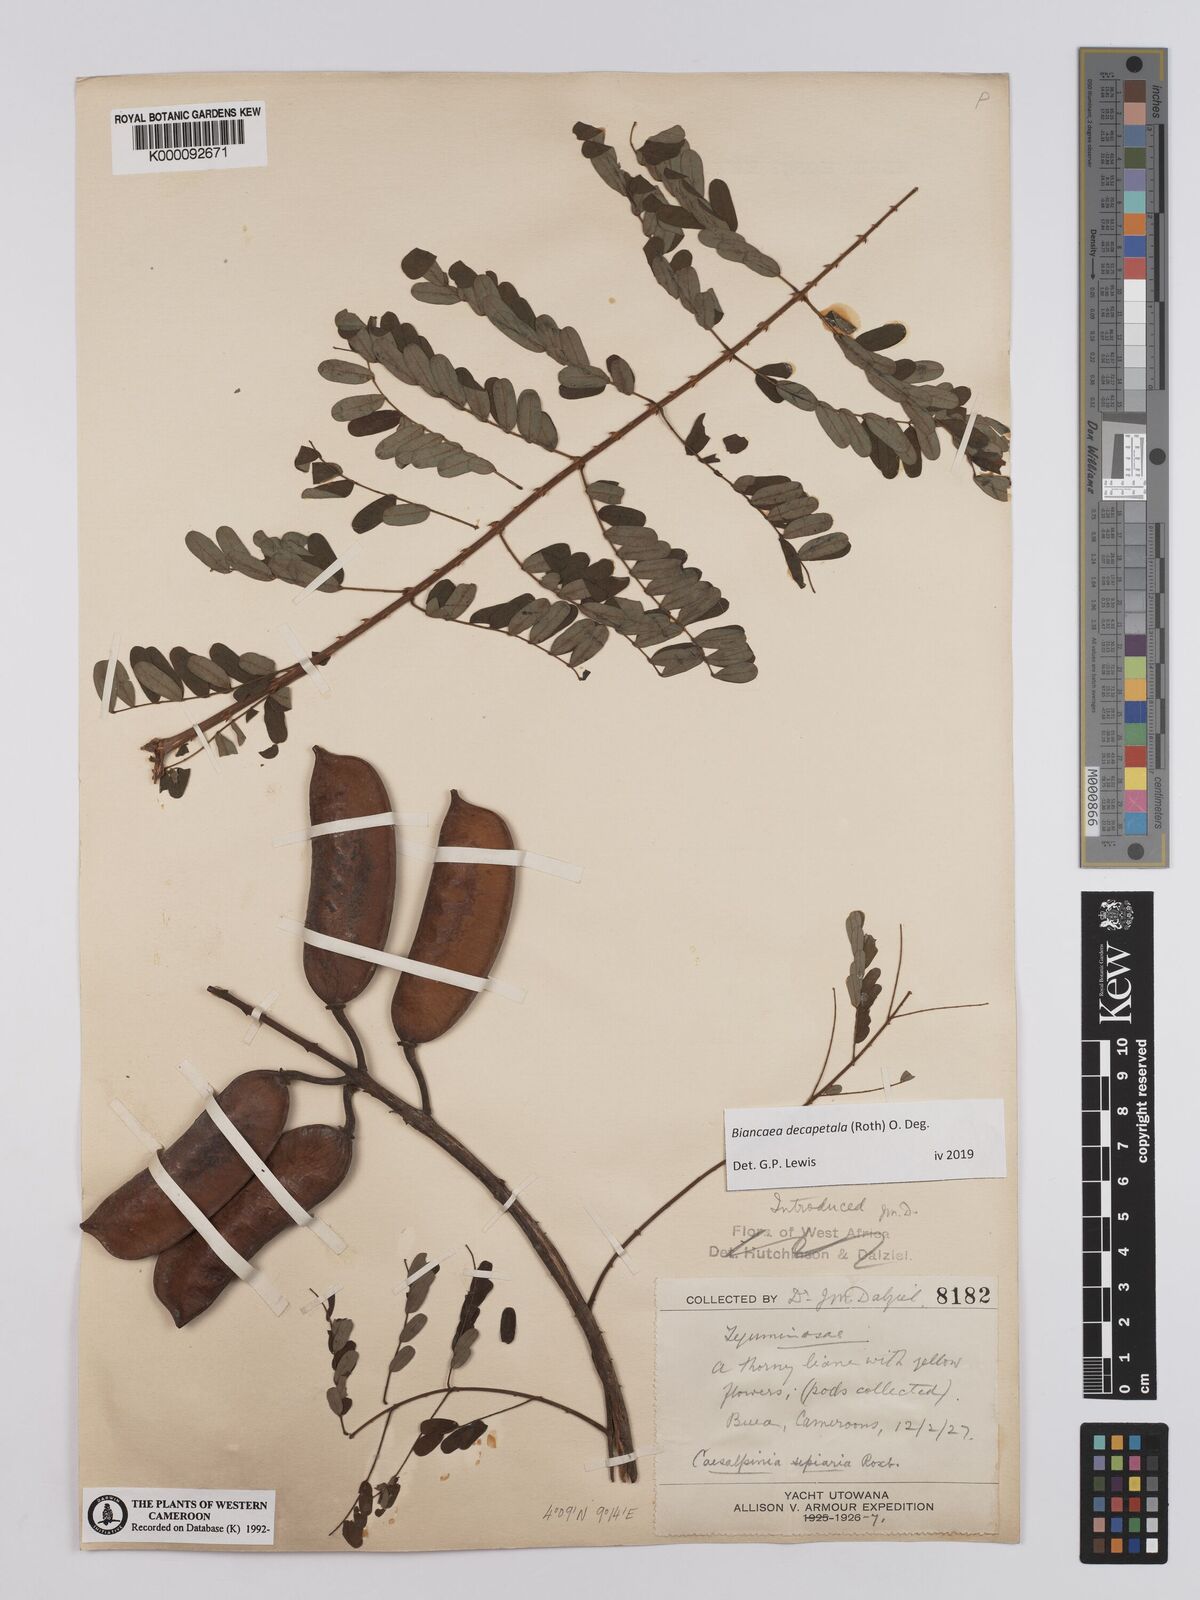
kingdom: Plantae
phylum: Tracheophyta
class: Magnoliopsida
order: Fabales
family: Fabaceae
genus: Biancaea
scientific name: Biancaea decapetala
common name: Cat's claw
